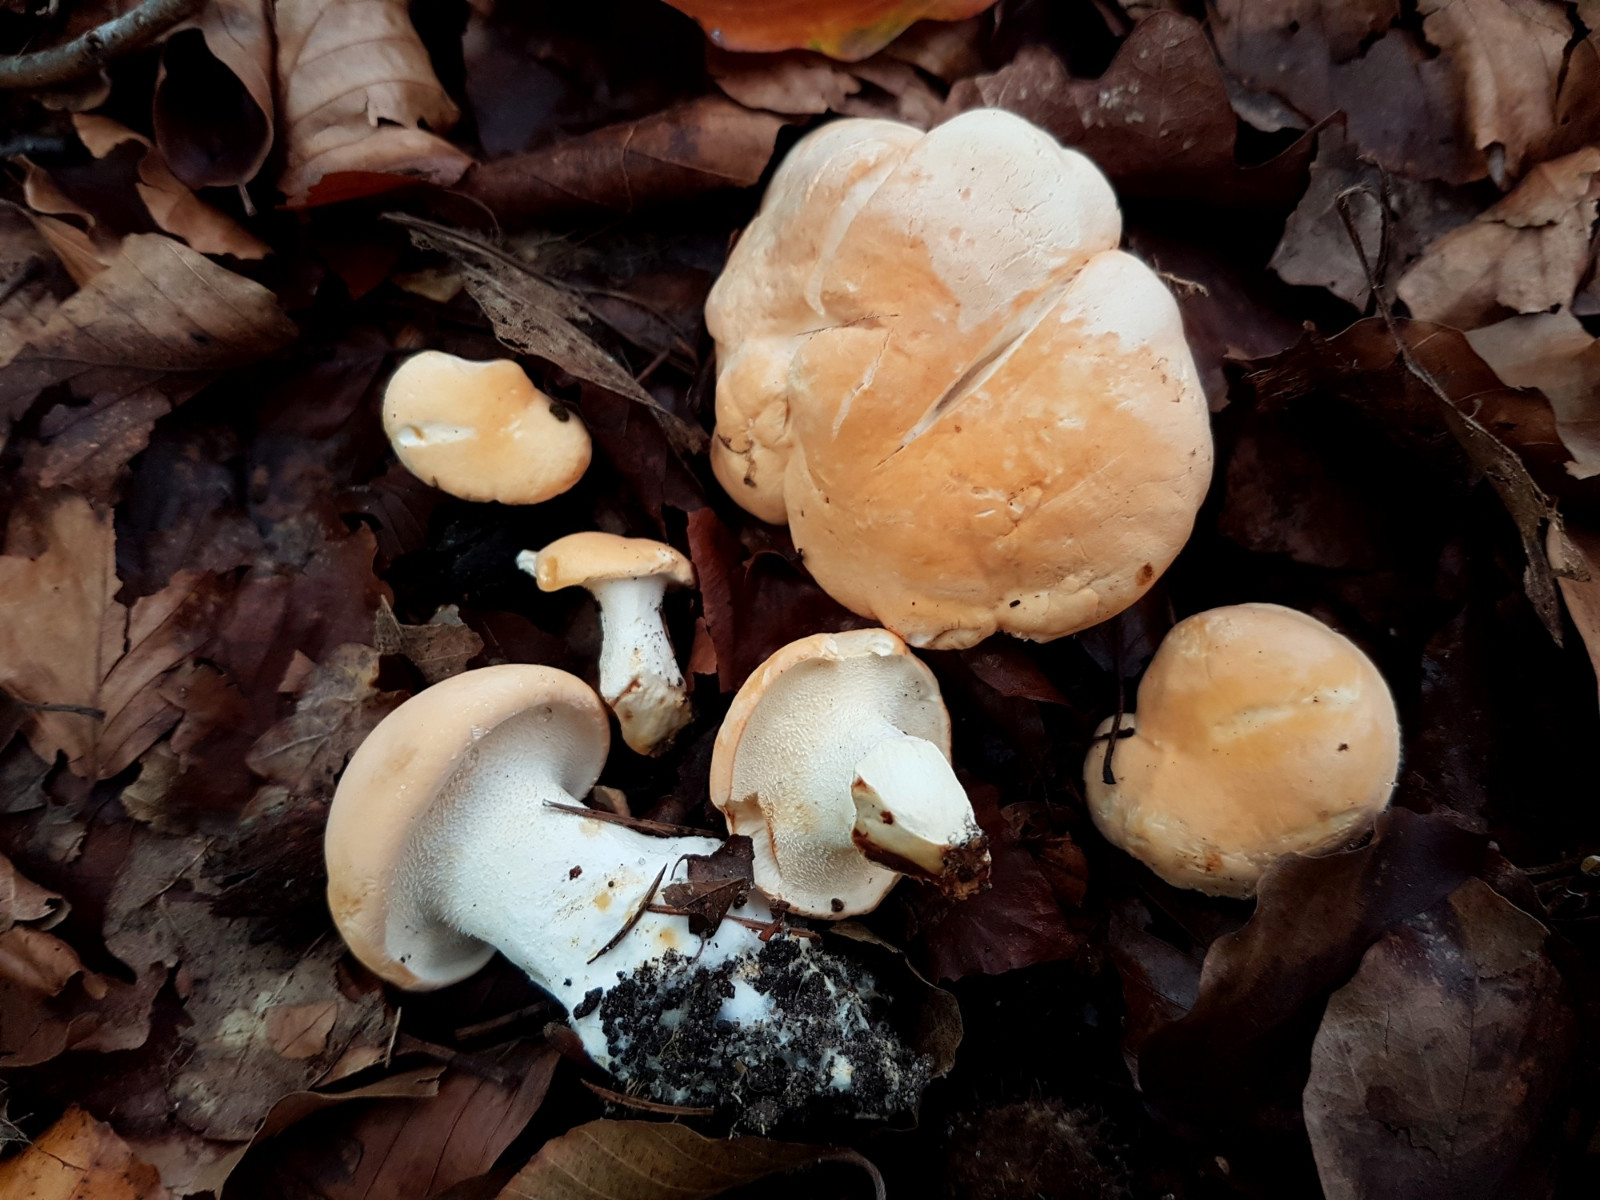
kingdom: Fungi
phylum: Basidiomycota
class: Agaricomycetes
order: Cantharellales
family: Hydnaceae
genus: Hydnum
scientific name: Hydnum
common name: pigsvamp
